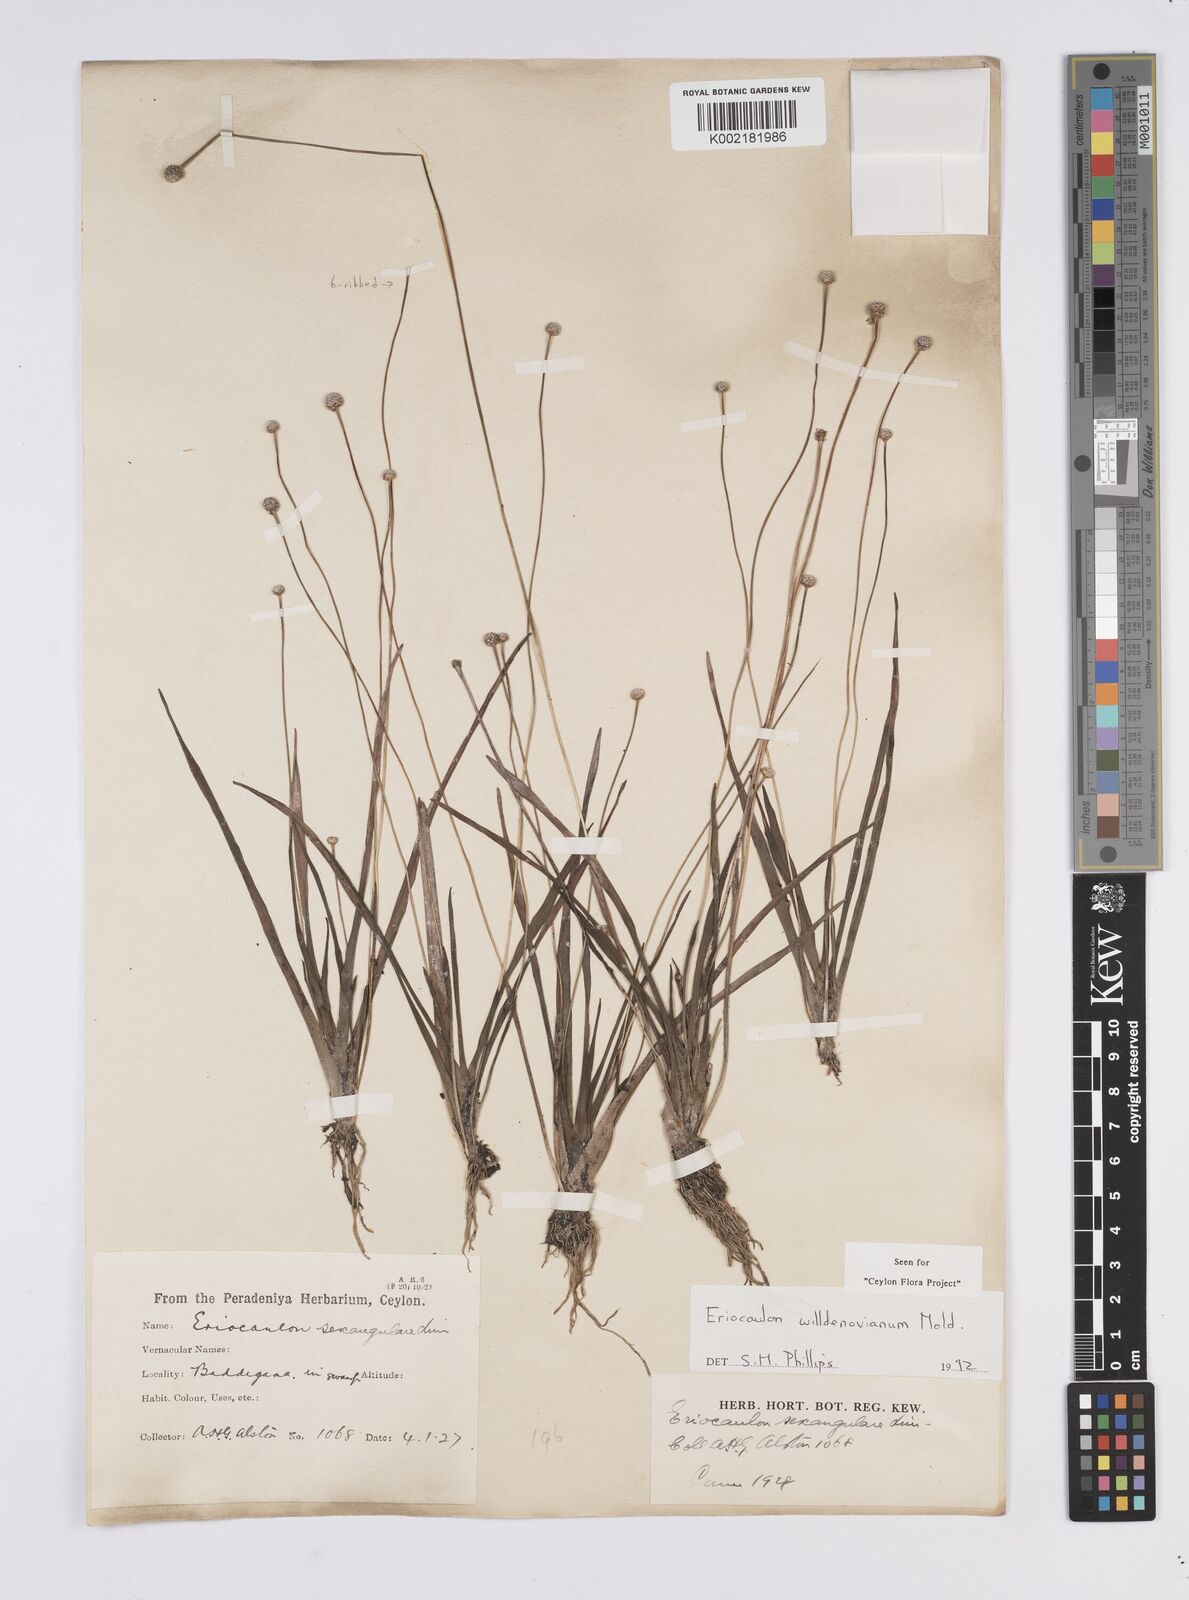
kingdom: Plantae
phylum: Tracheophyta
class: Liliopsida
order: Poales
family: Eriocaulaceae
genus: Eriocaulon
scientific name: Eriocaulon willdenovianum
